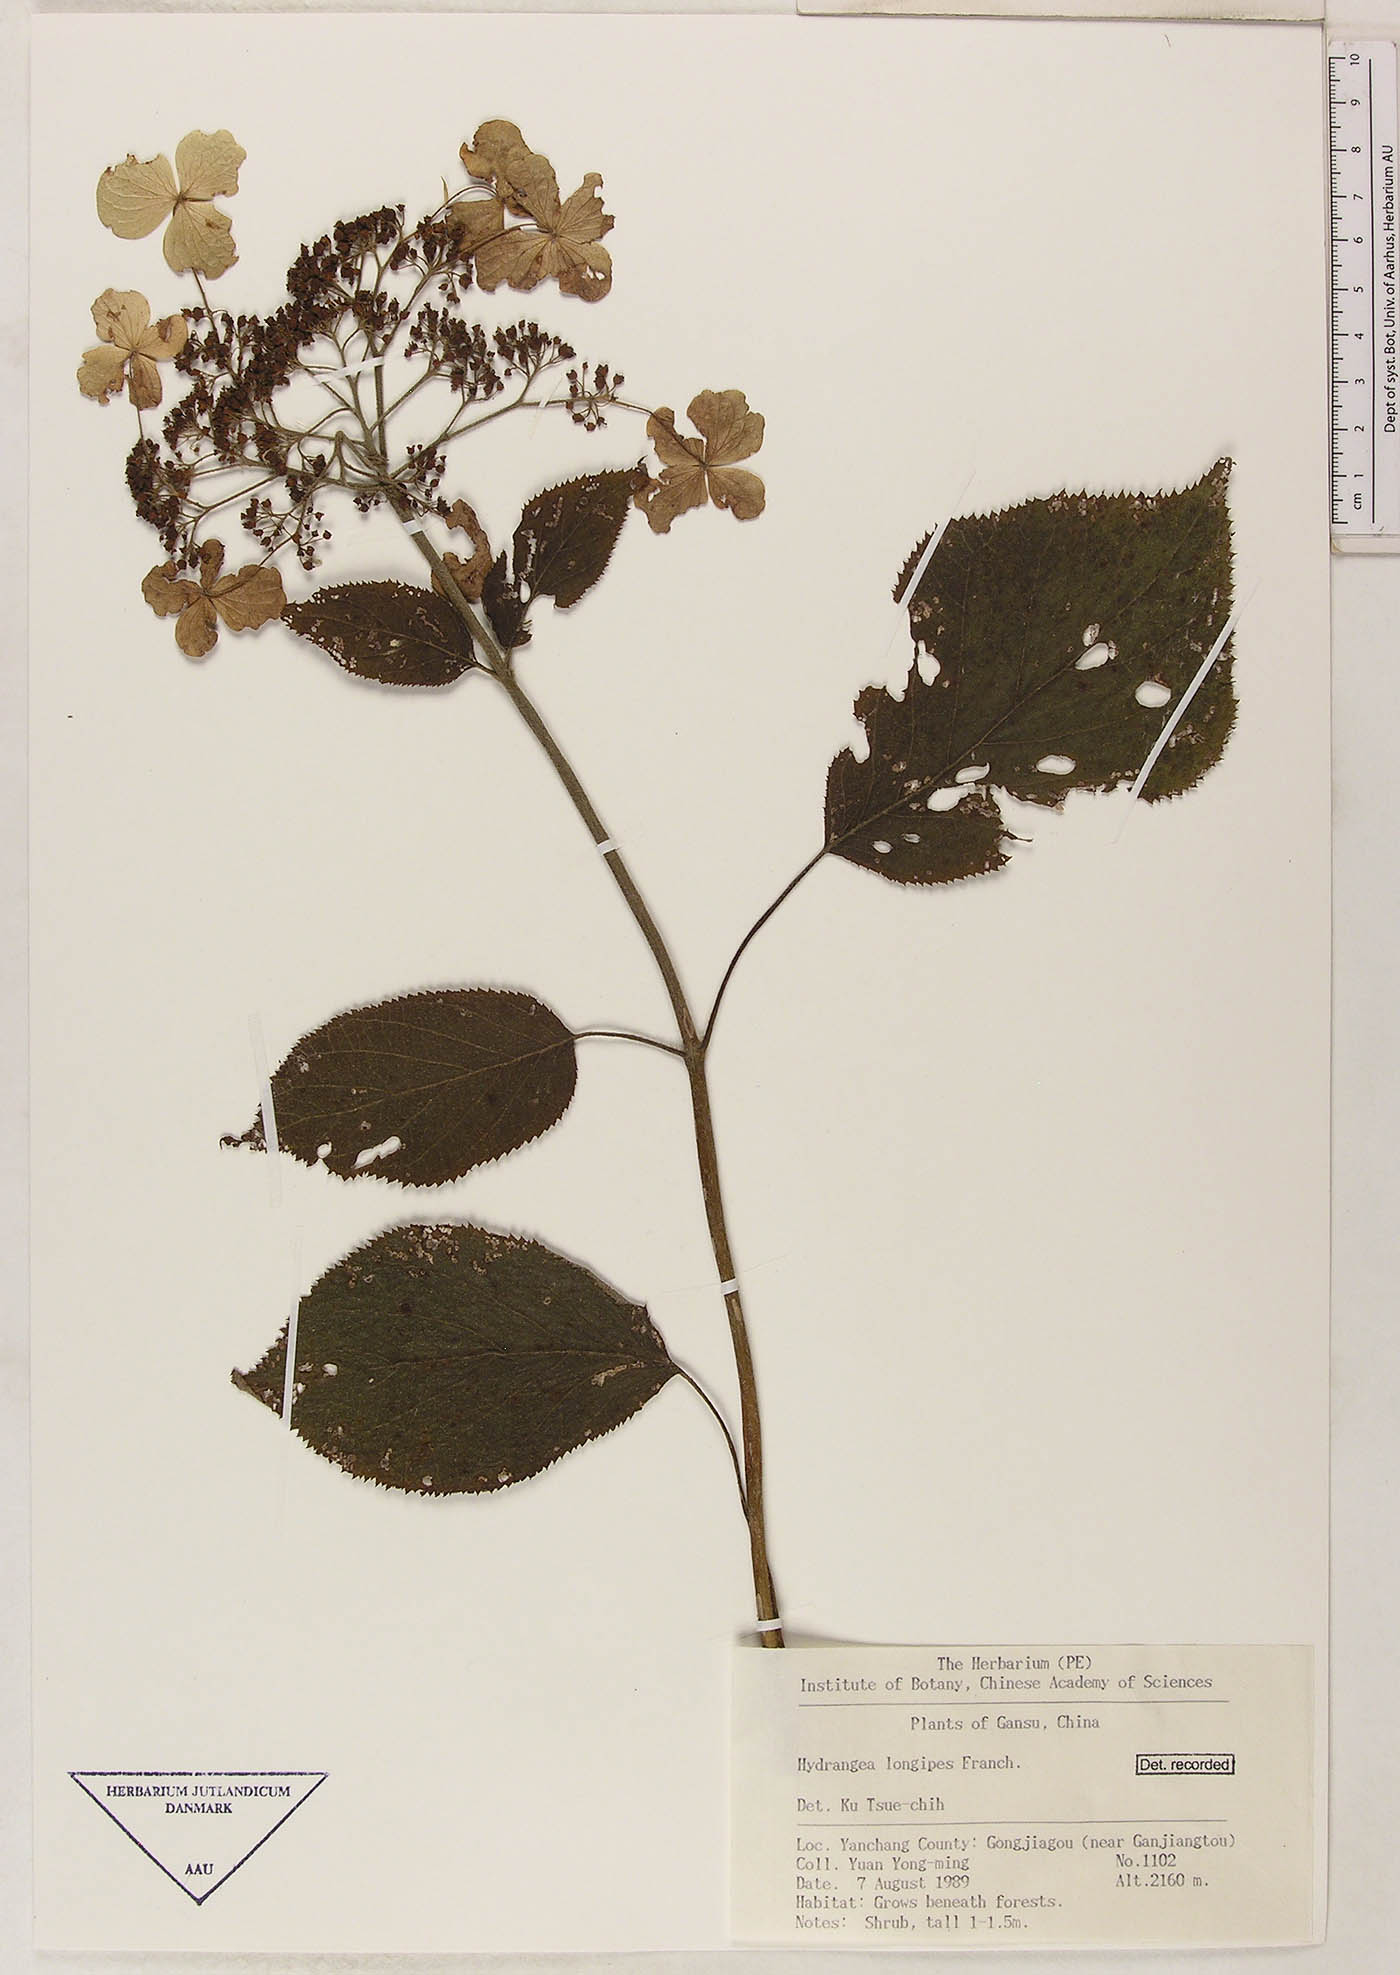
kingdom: Plantae
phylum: Tracheophyta
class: Magnoliopsida
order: Cornales
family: Hydrangeaceae
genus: Hydrangea
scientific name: Hydrangea longipes
